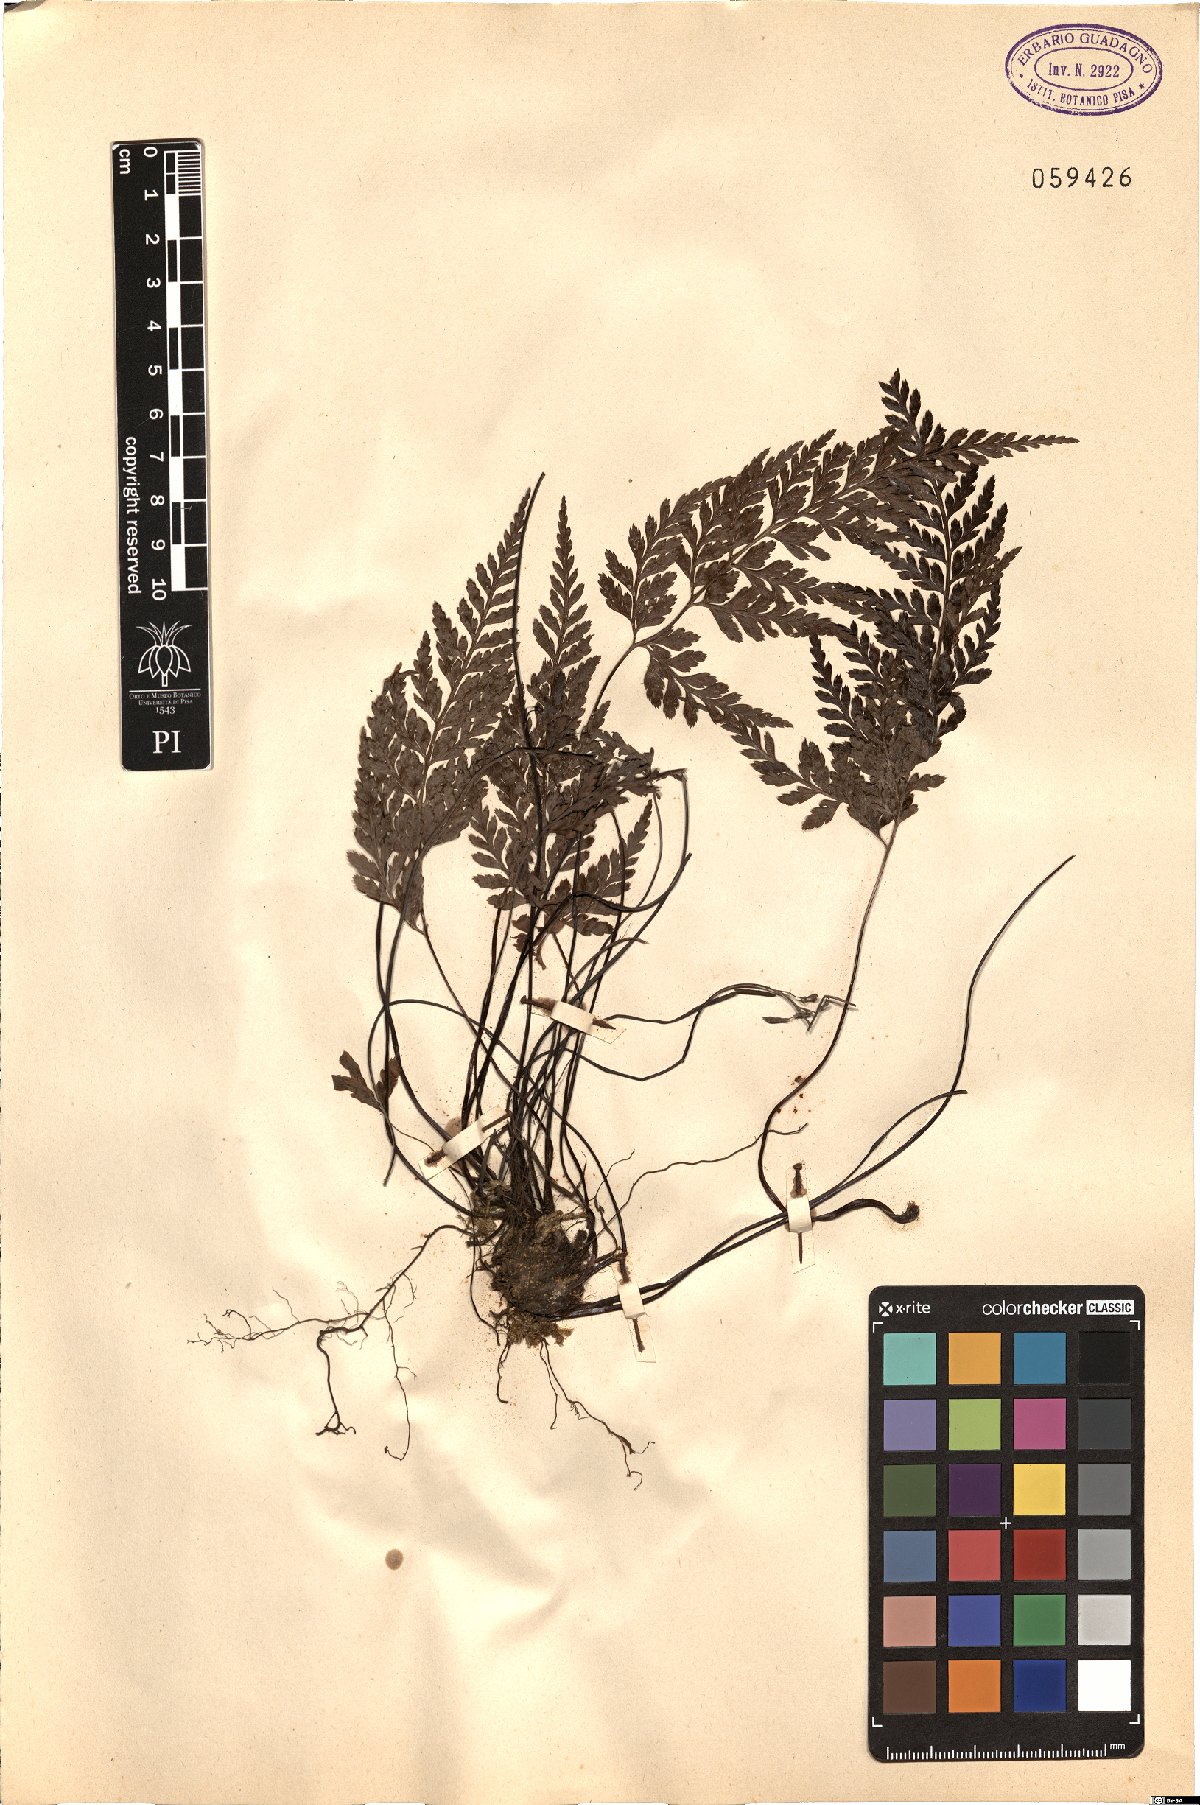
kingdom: Plantae
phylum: Tracheophyta
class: Polypodiopsida
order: Polypodiales
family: Aspleniaceae
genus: Asplenium
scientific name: Asplenium
